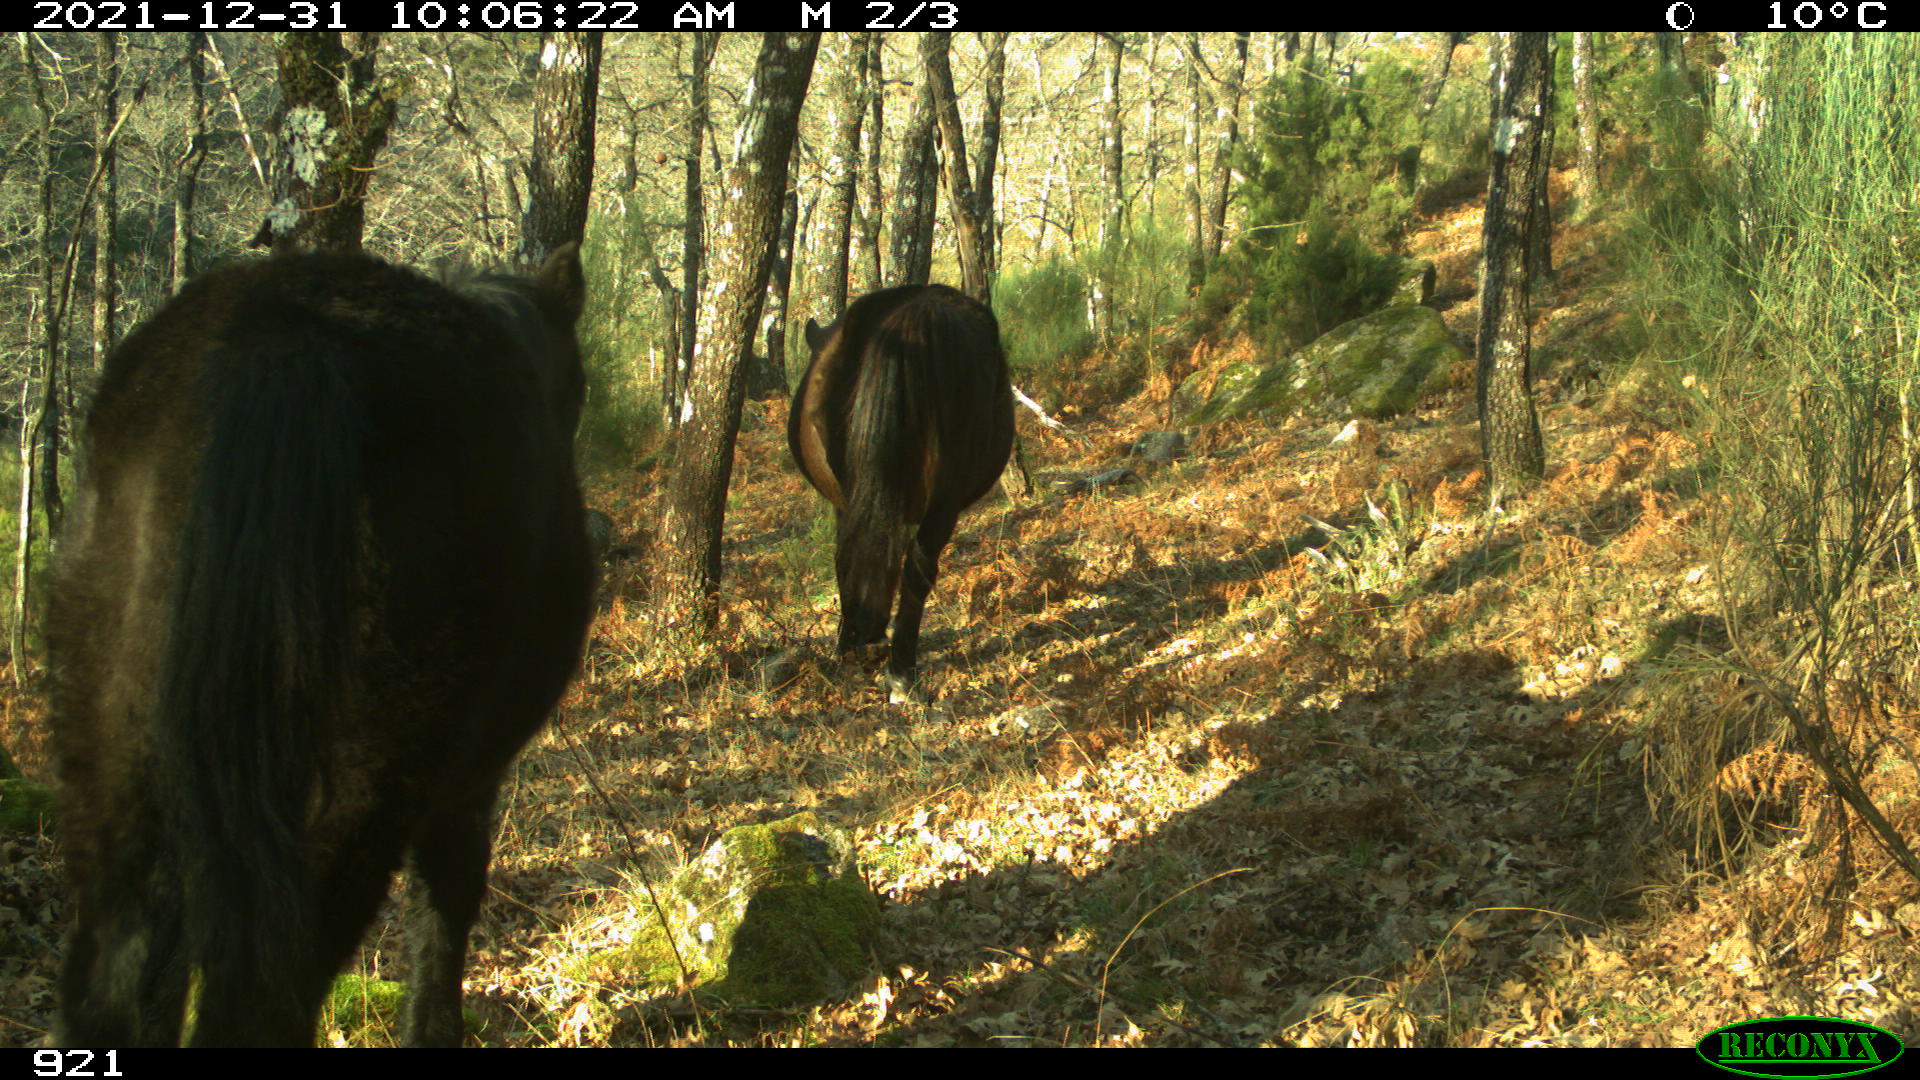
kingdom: Animalia
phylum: Chordata
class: Mammalia
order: Perissodactyla
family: Equidae
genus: Equus
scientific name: Equus caballus
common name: Horse
